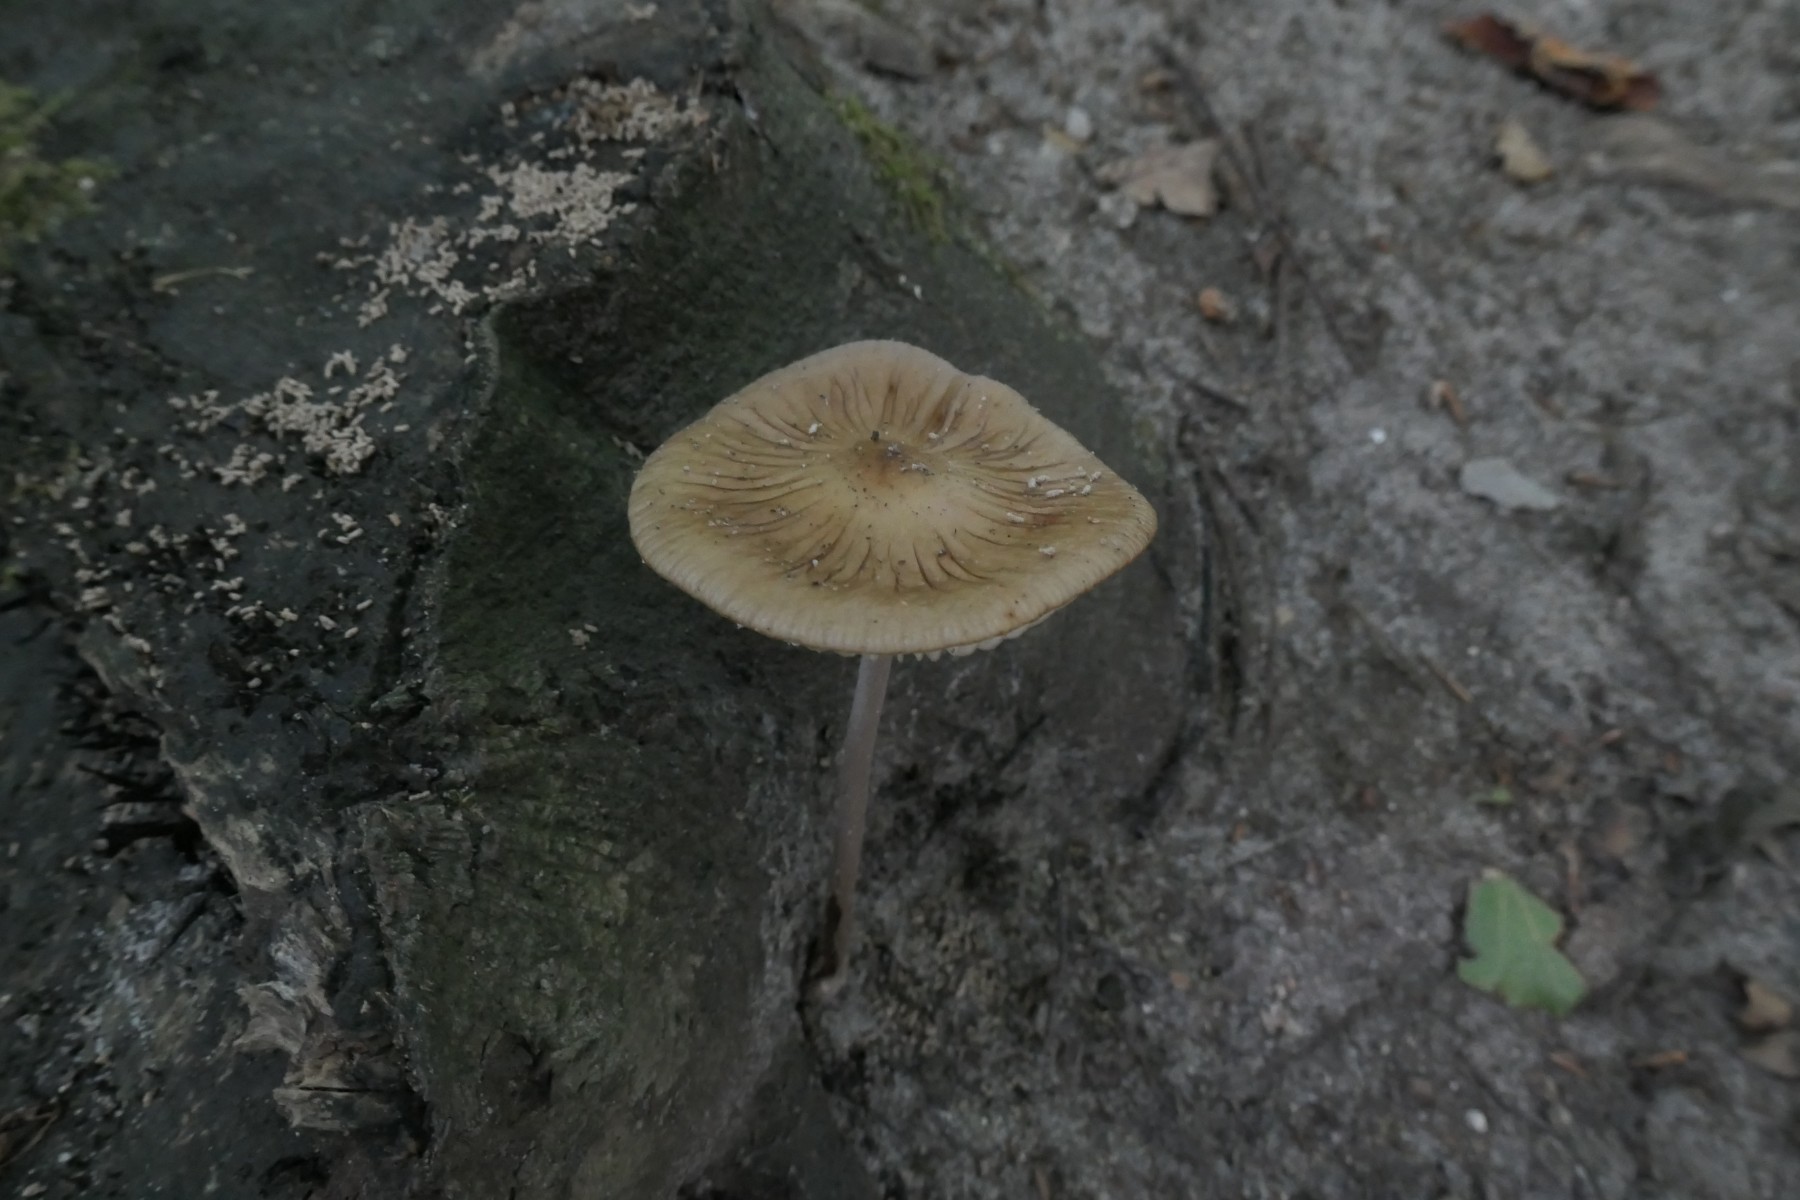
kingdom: Fungi
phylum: Basidiomycota
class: Agaricomycetes
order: Agaricales
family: Physalacriaceae
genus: Hymenopellis
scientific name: Hymenopellis radicata
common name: almindelig pælerodshat
